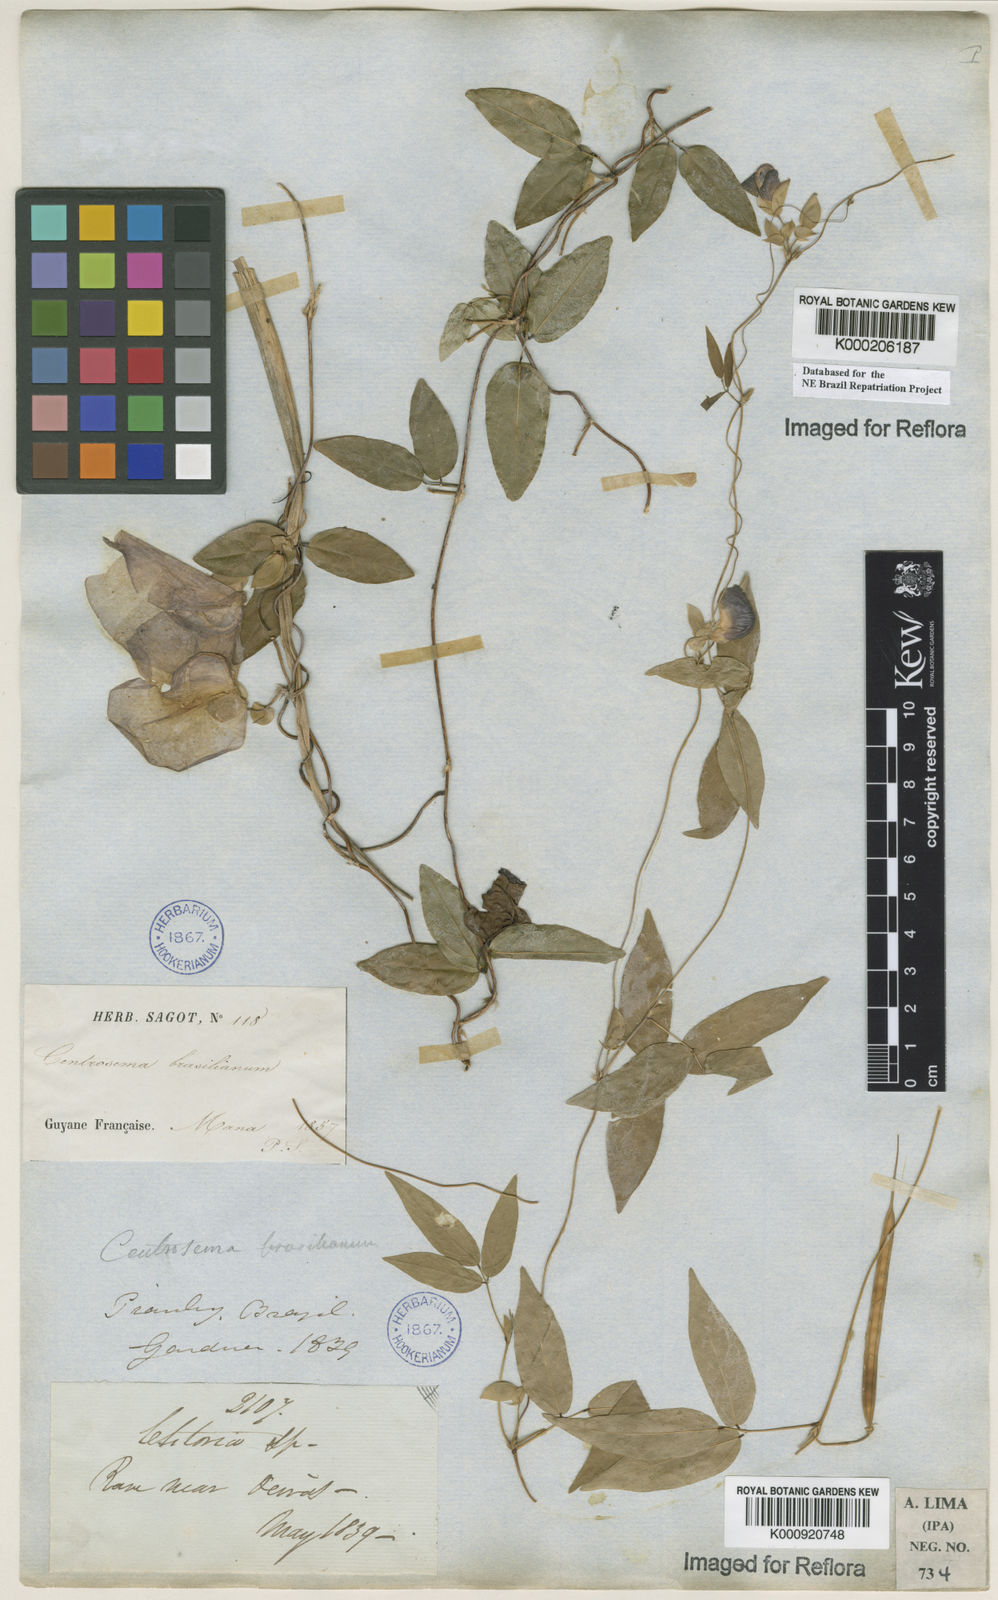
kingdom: Plantae
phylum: Tracheophyta
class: Magnoliopsida
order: Fabales
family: Fabaceae
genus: Centrosema
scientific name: Centrosema brasilianum
